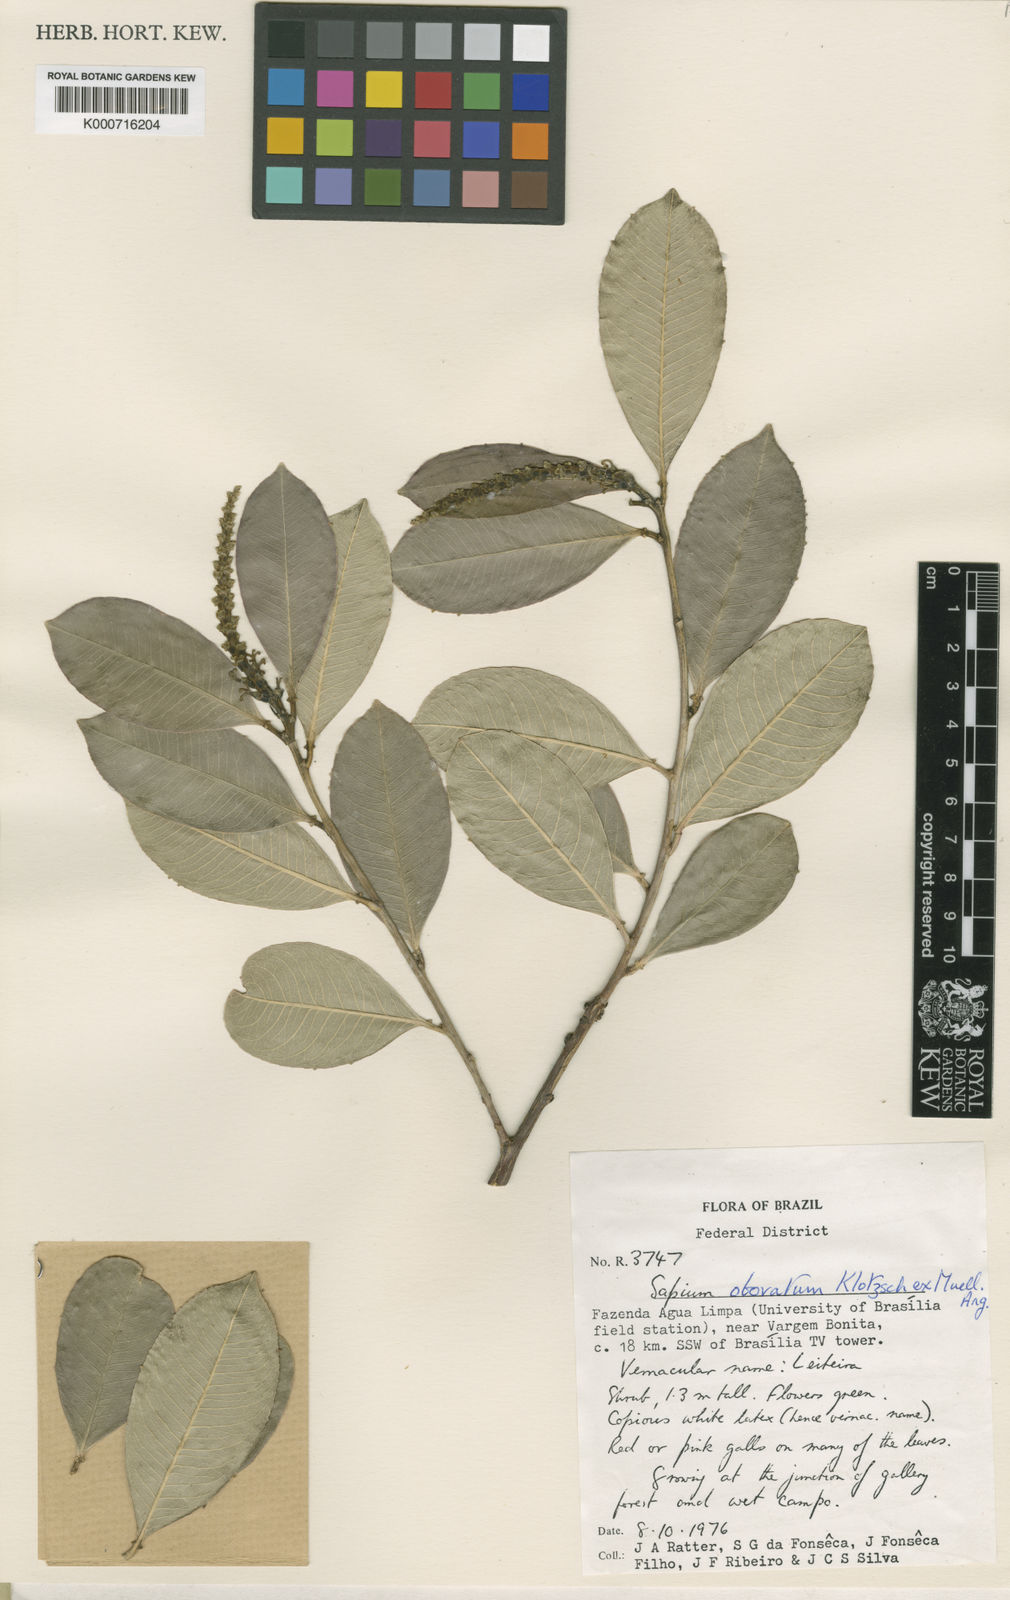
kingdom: Plantae
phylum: Tracheophyta
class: Magnoliopsida
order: Malpighiales
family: Euphorbiaceae
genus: Sapium
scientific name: Sapium
